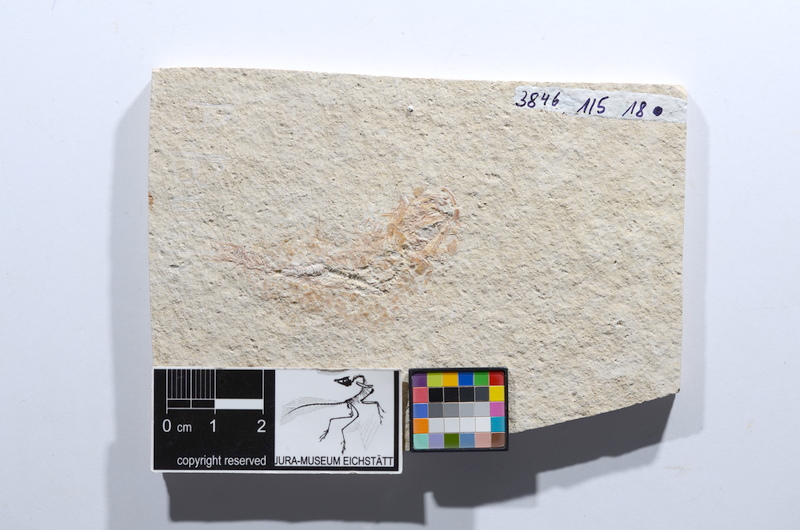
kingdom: Animalia
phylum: Chordata
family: Ascalaboidae
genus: Tharsis
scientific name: Tharsis dubius
